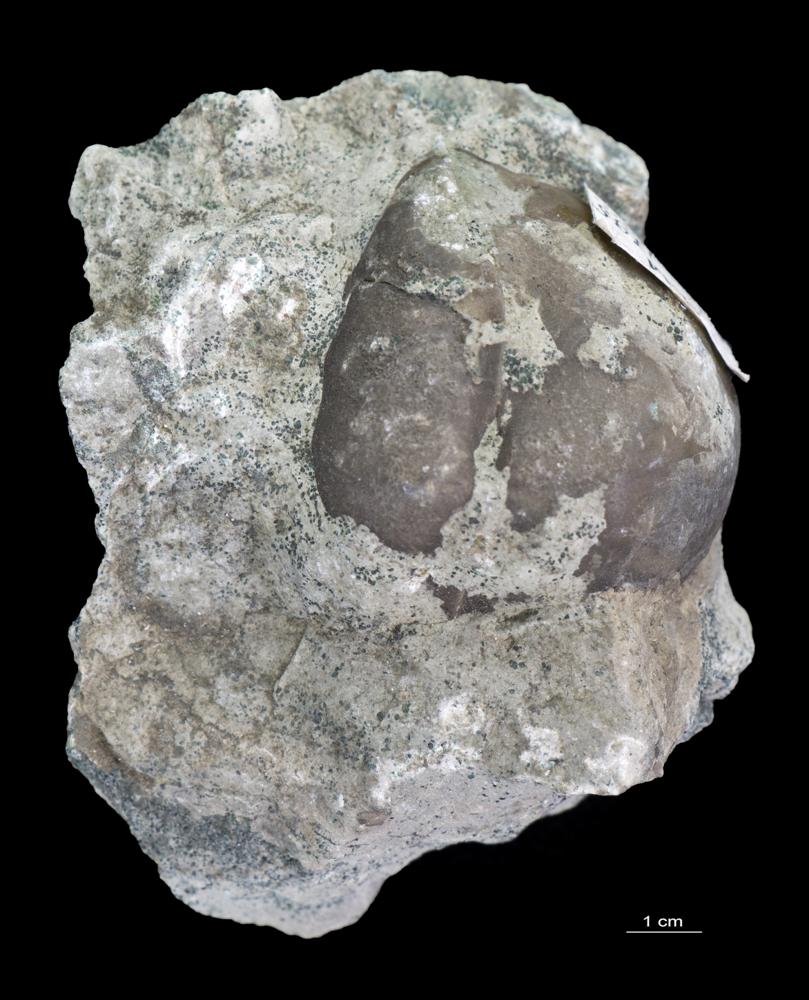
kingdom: Animalia
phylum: Brachiopoda
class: Rhynchonellata
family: Porambonitidae
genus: Porambonites
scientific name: Porambonites
